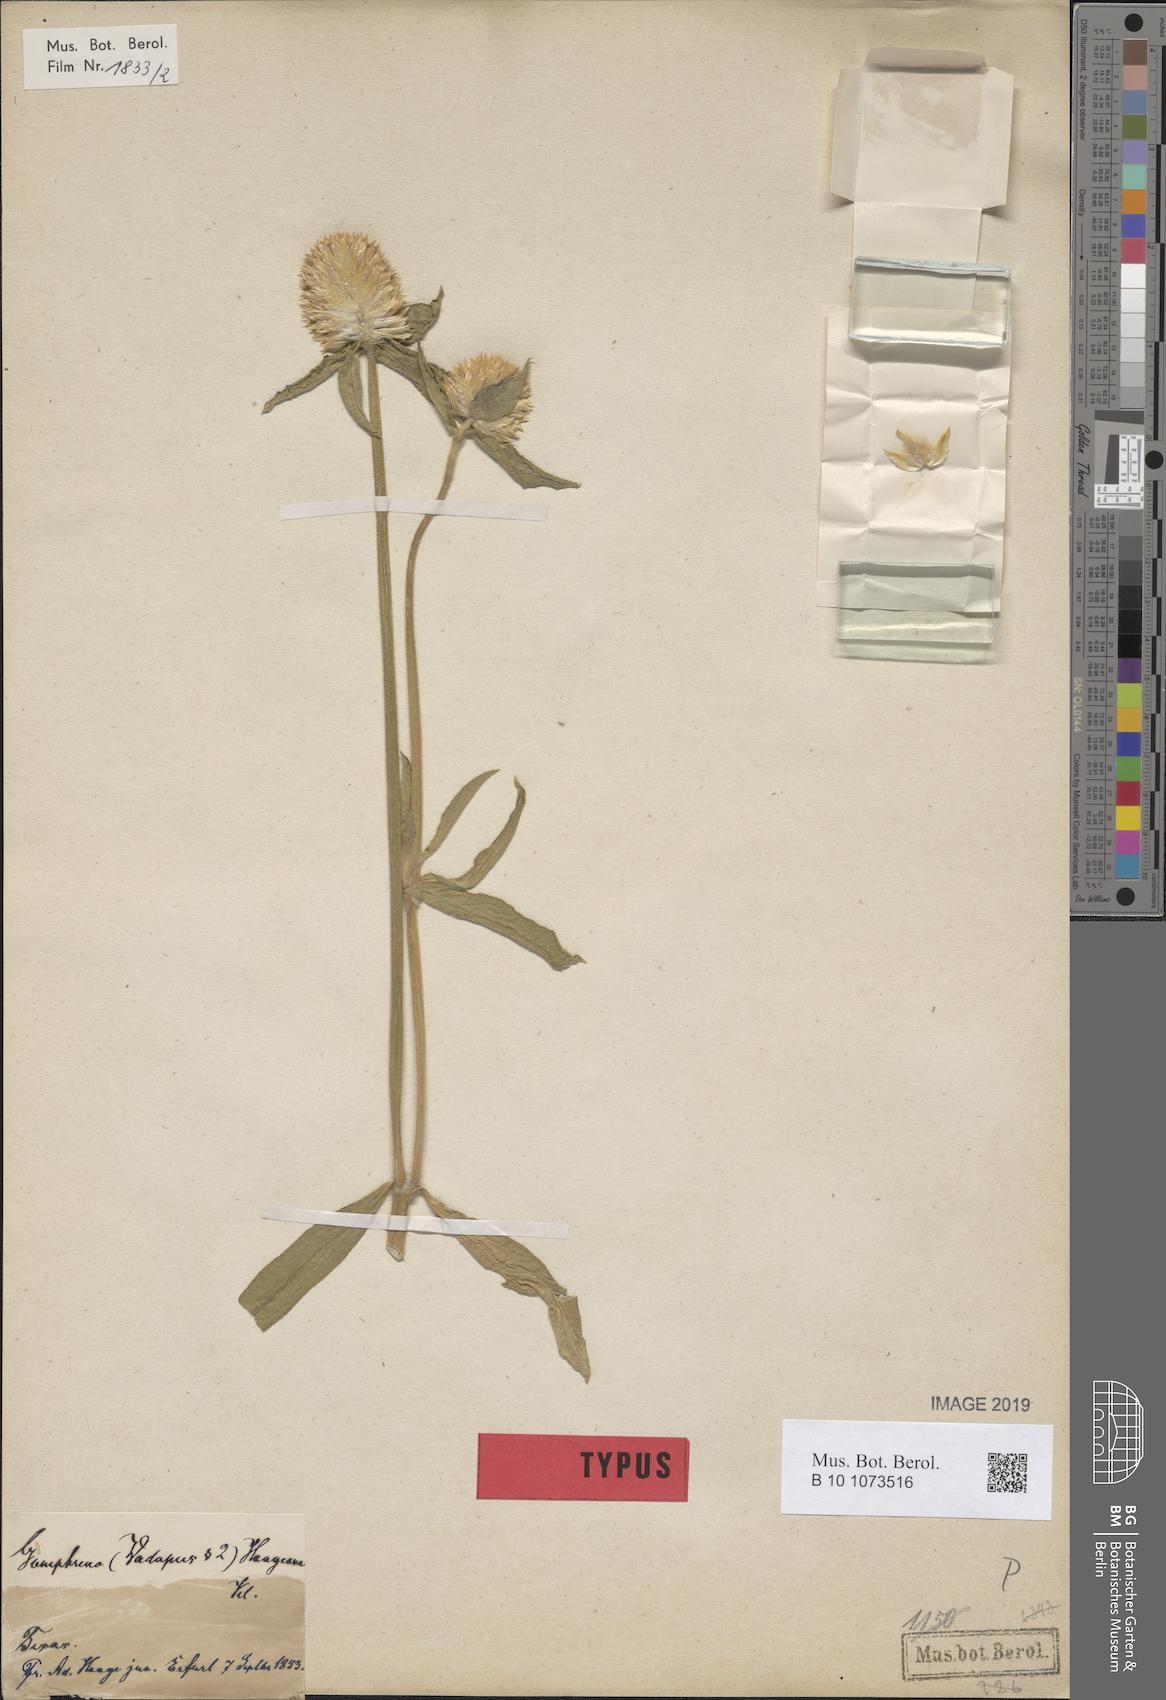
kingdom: Plantae
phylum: Tracheophyta
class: Magnoliopsida
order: Caryophyllales
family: Amaranthaceae
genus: Gomphrena
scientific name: Gomphrena haageana
